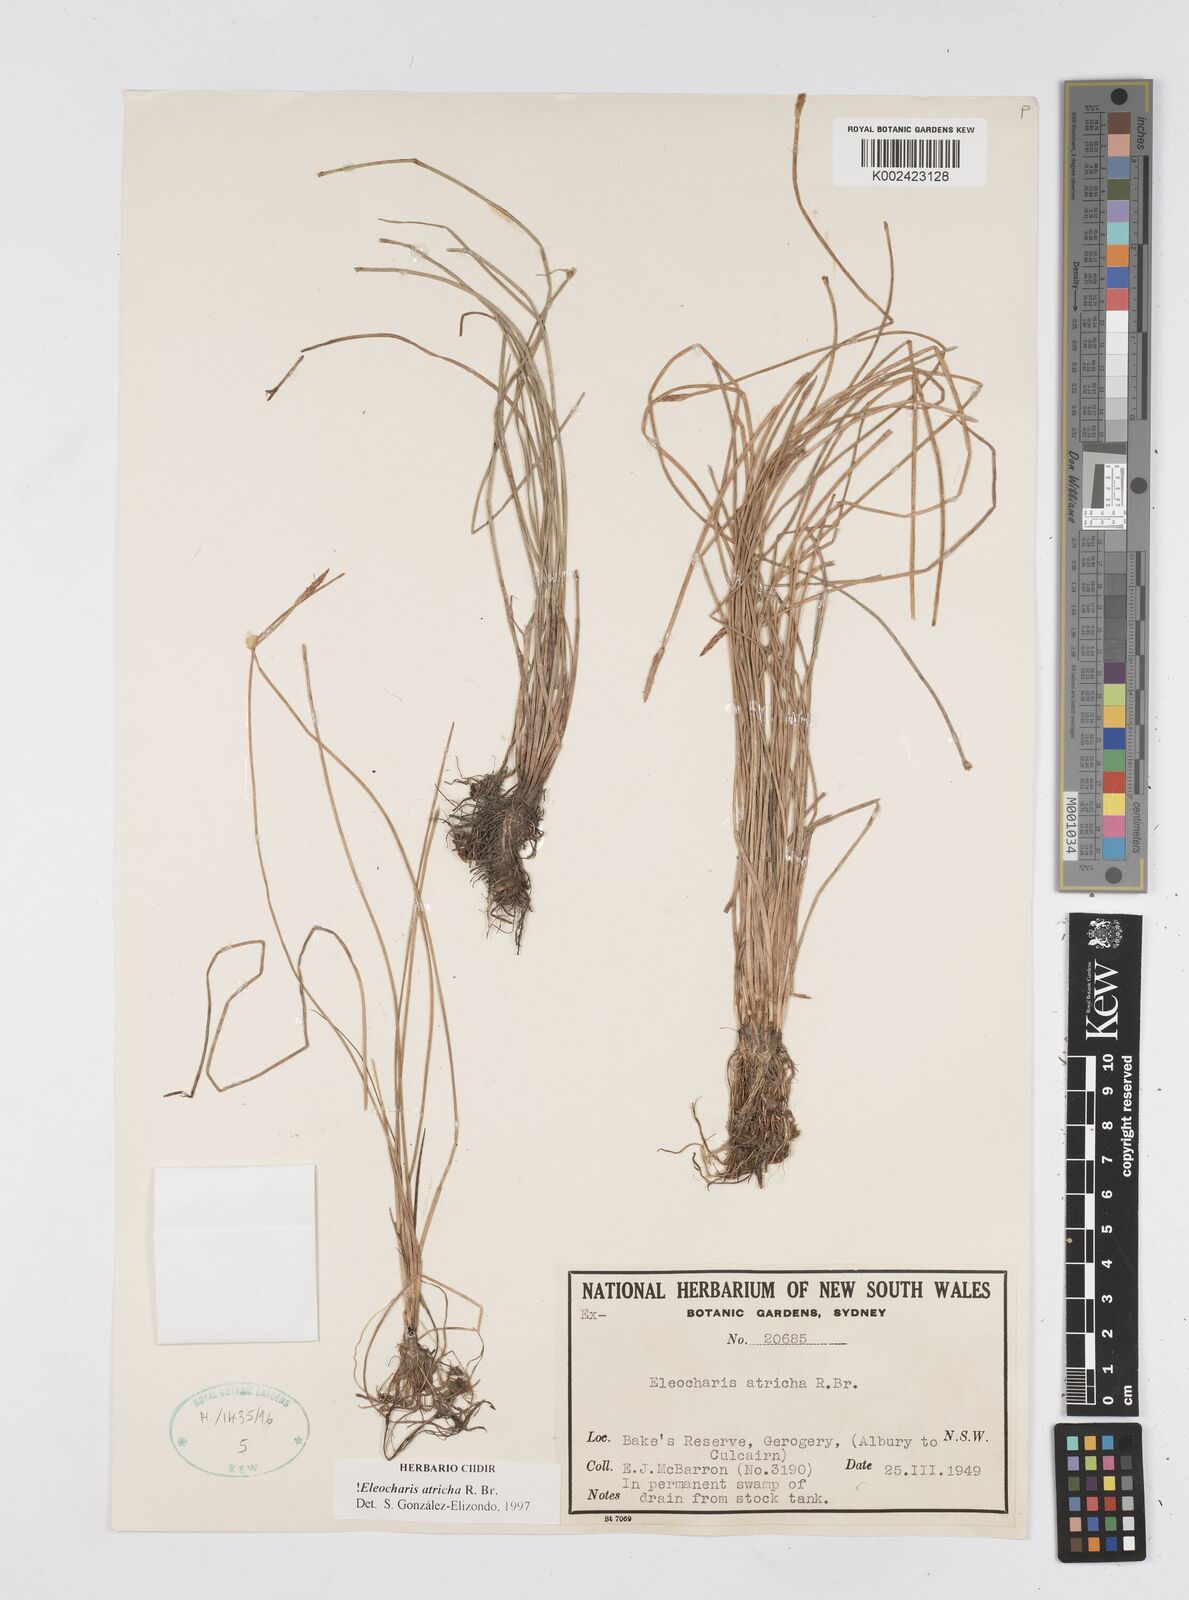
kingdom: Plantae
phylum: Tracheophyta
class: Liliopsida
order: Poales
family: Cyperaceae
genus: Eleocharis
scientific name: Eleocharis acicularis
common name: Needle spike-rush
